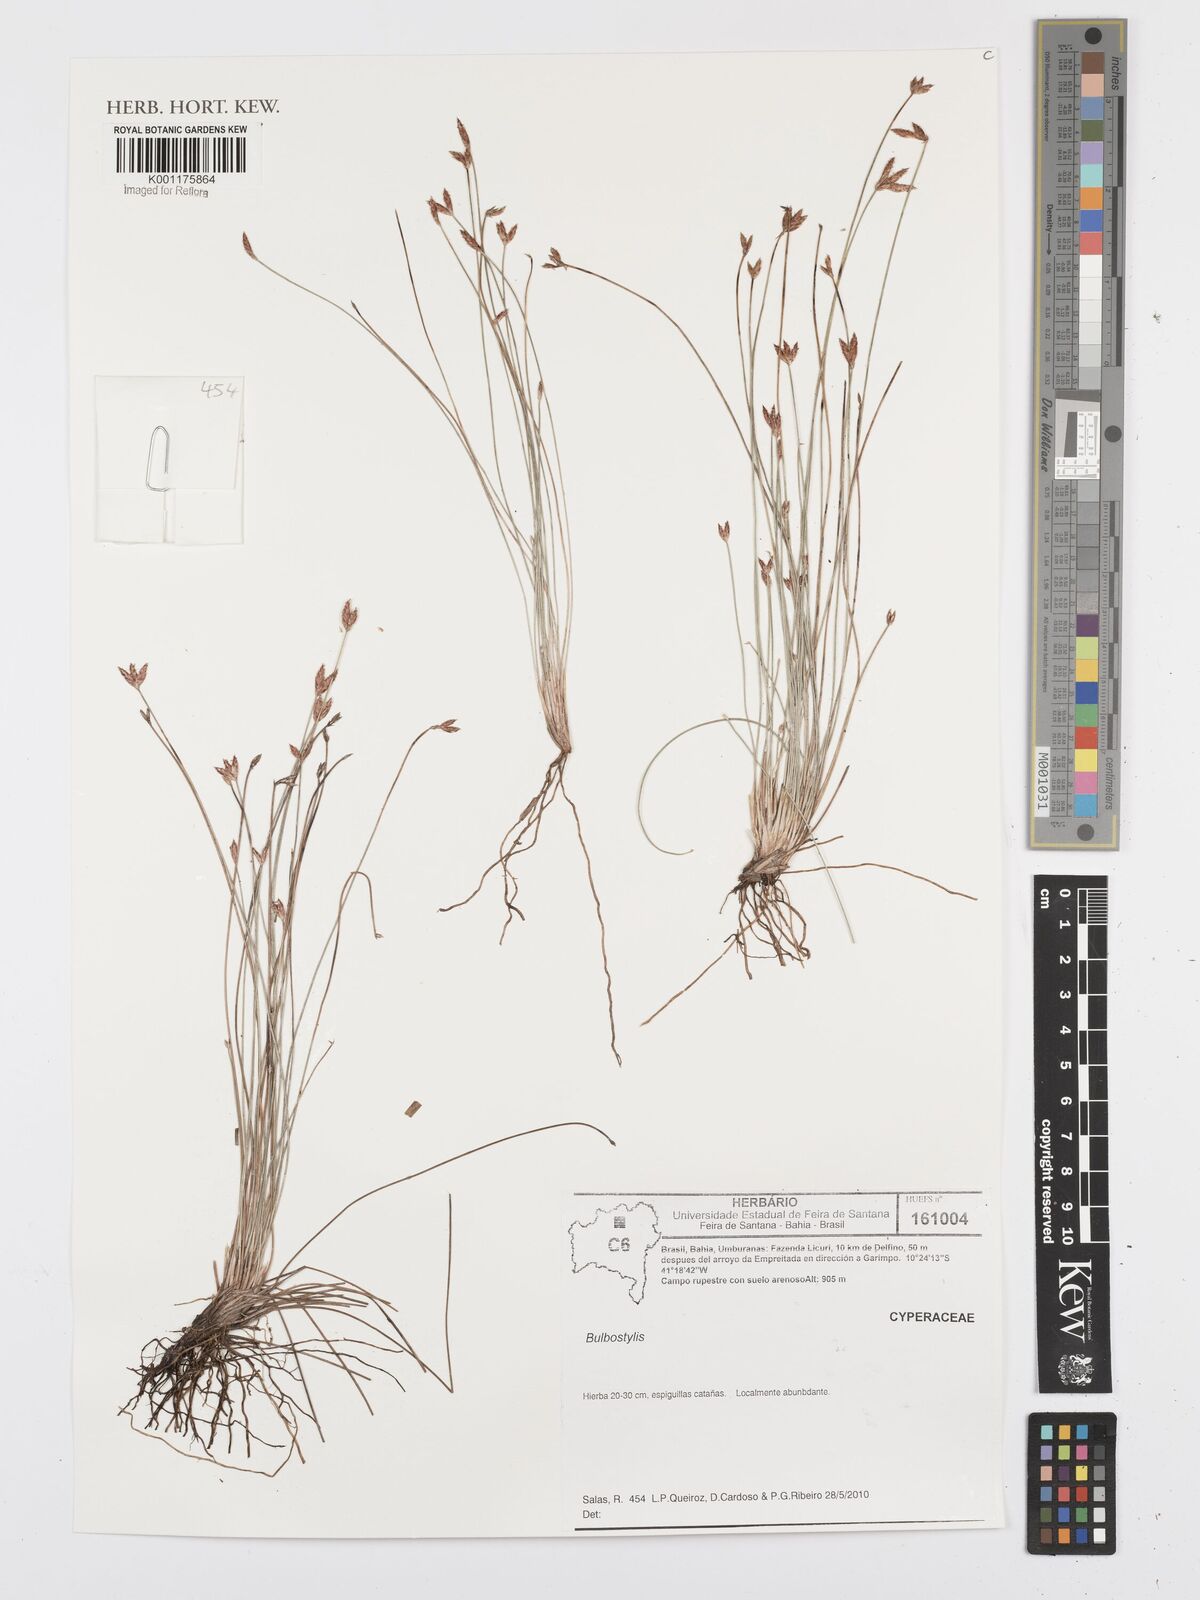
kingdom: Plantae
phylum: Tracheophyta
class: Liliopsida
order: Poales
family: Cyperaceae
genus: Bulbostylis
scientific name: Bulbostylis
